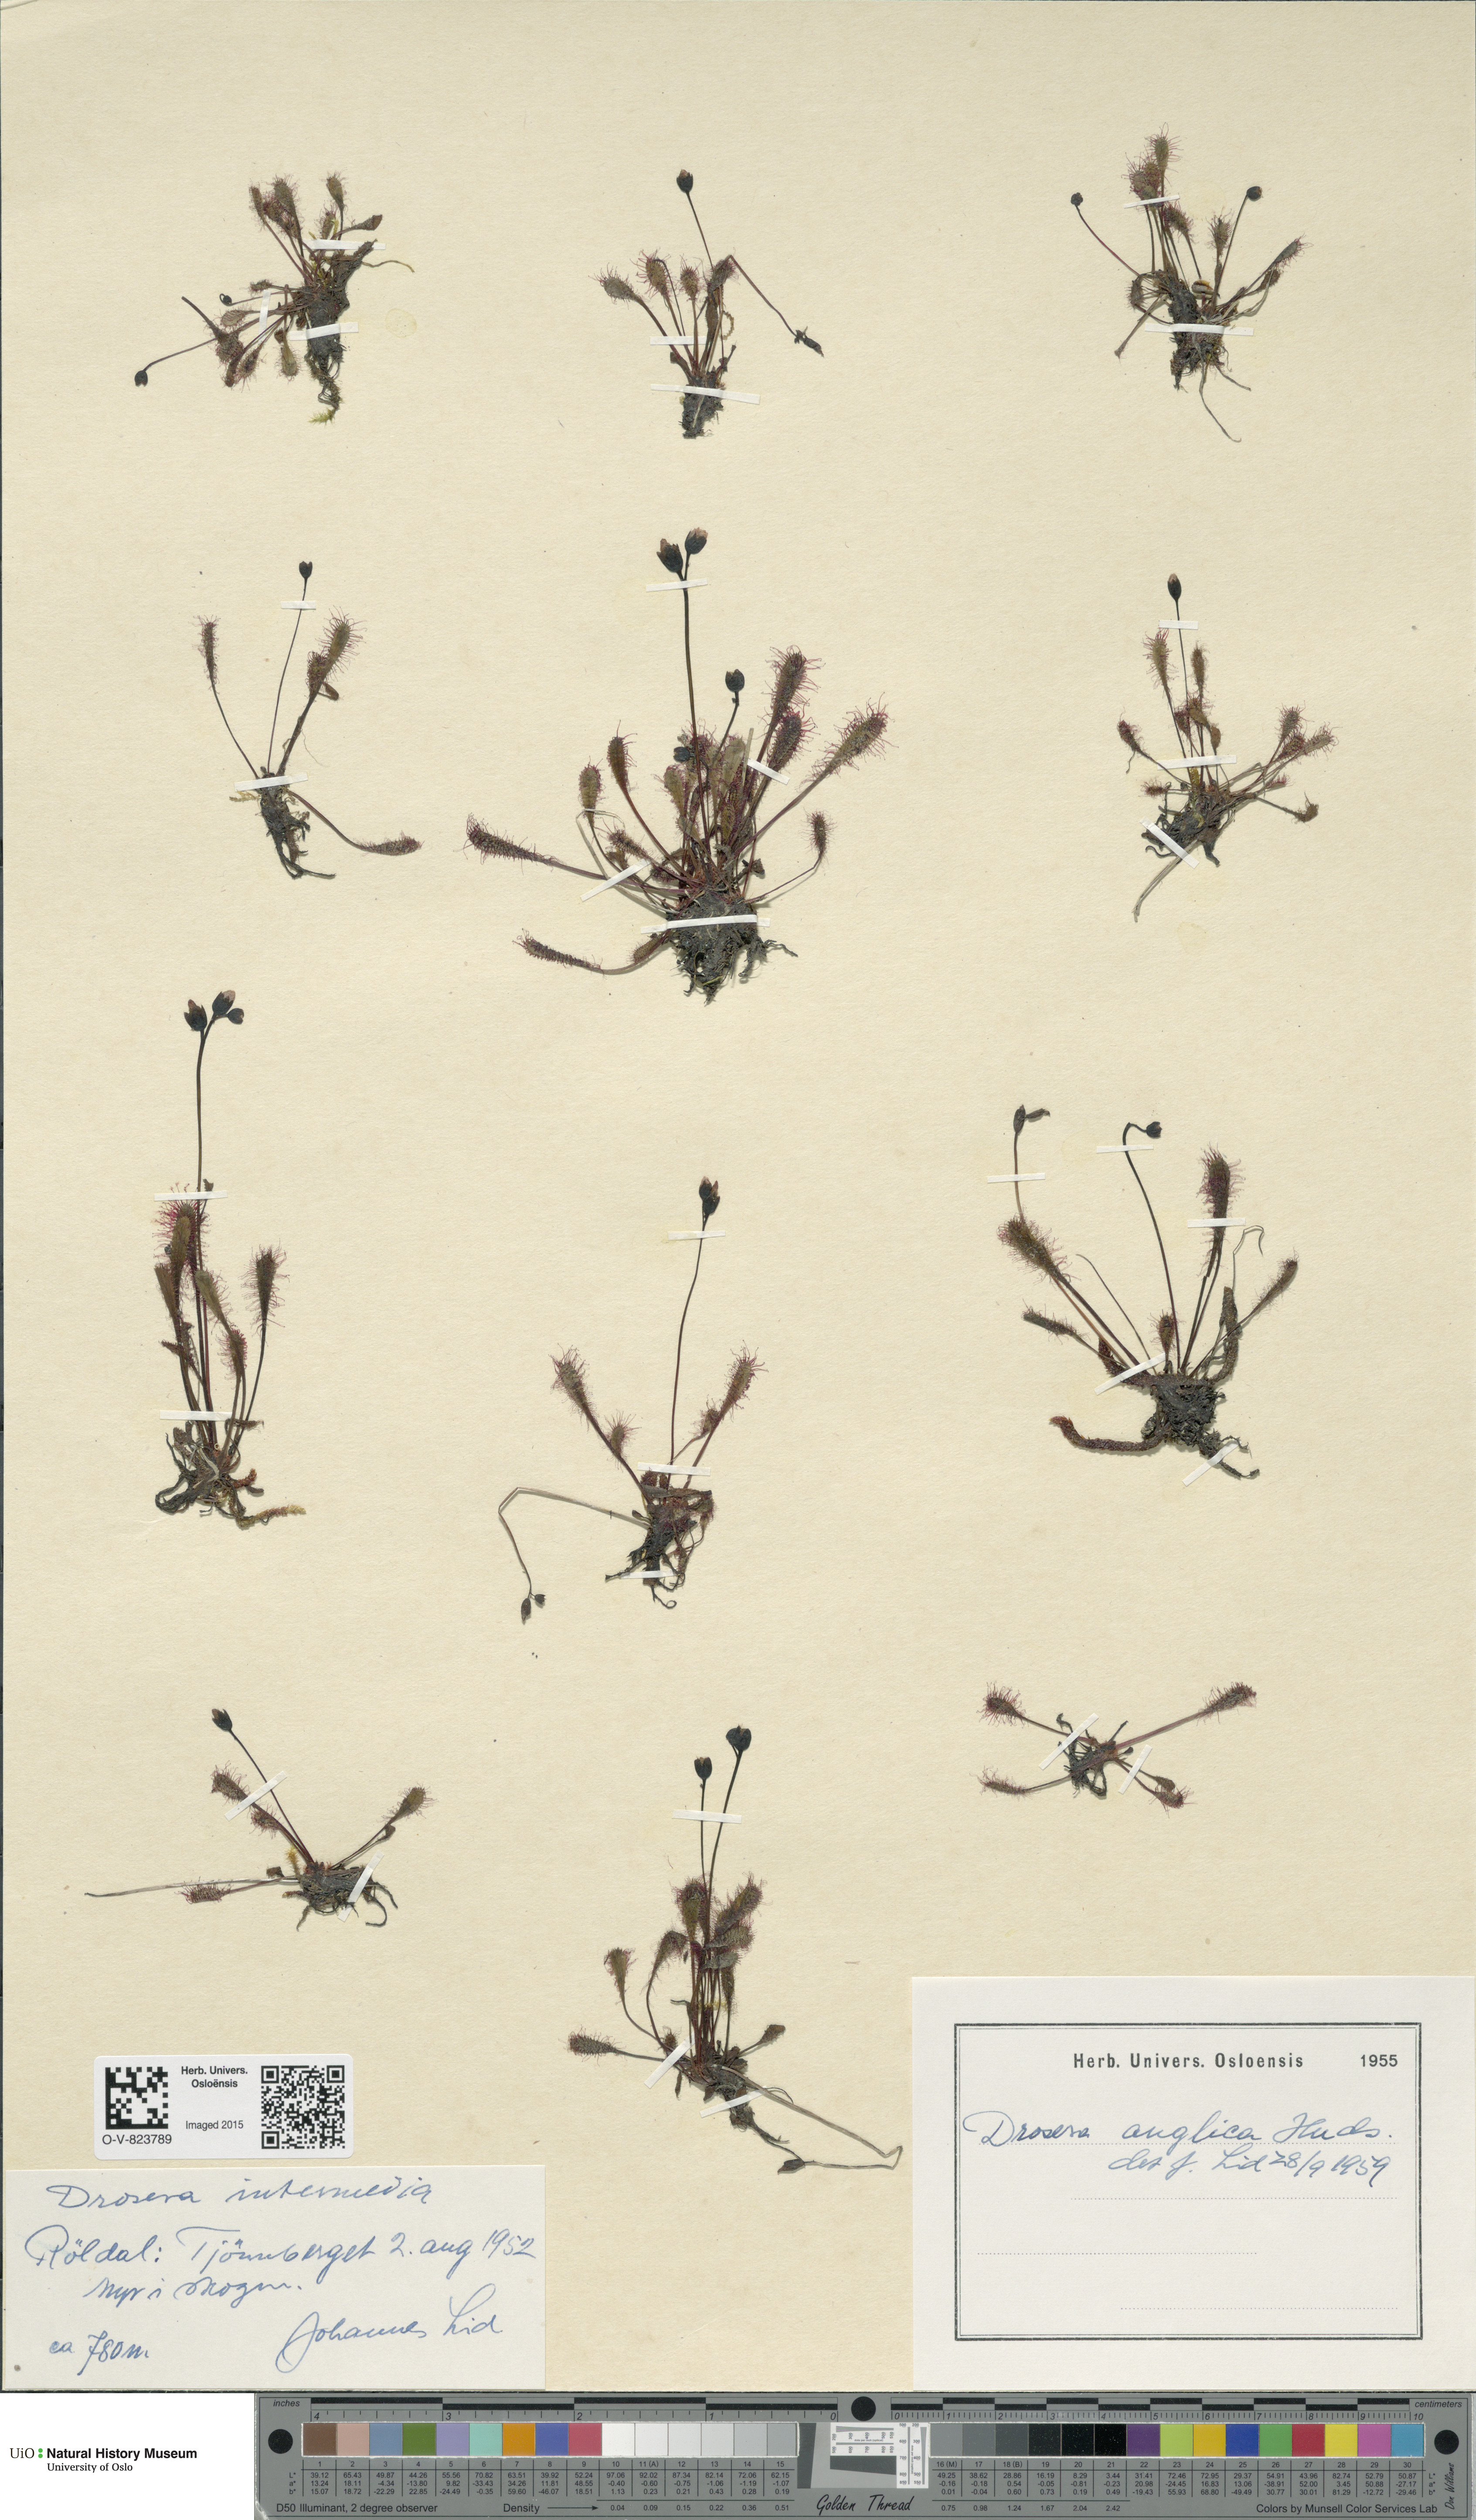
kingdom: Plantae
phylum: Tracheophyta
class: Magnoliopsida
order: Caryophyllales
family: Droseraceae
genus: Drosera
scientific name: Drosera anglica
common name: Great sundew
